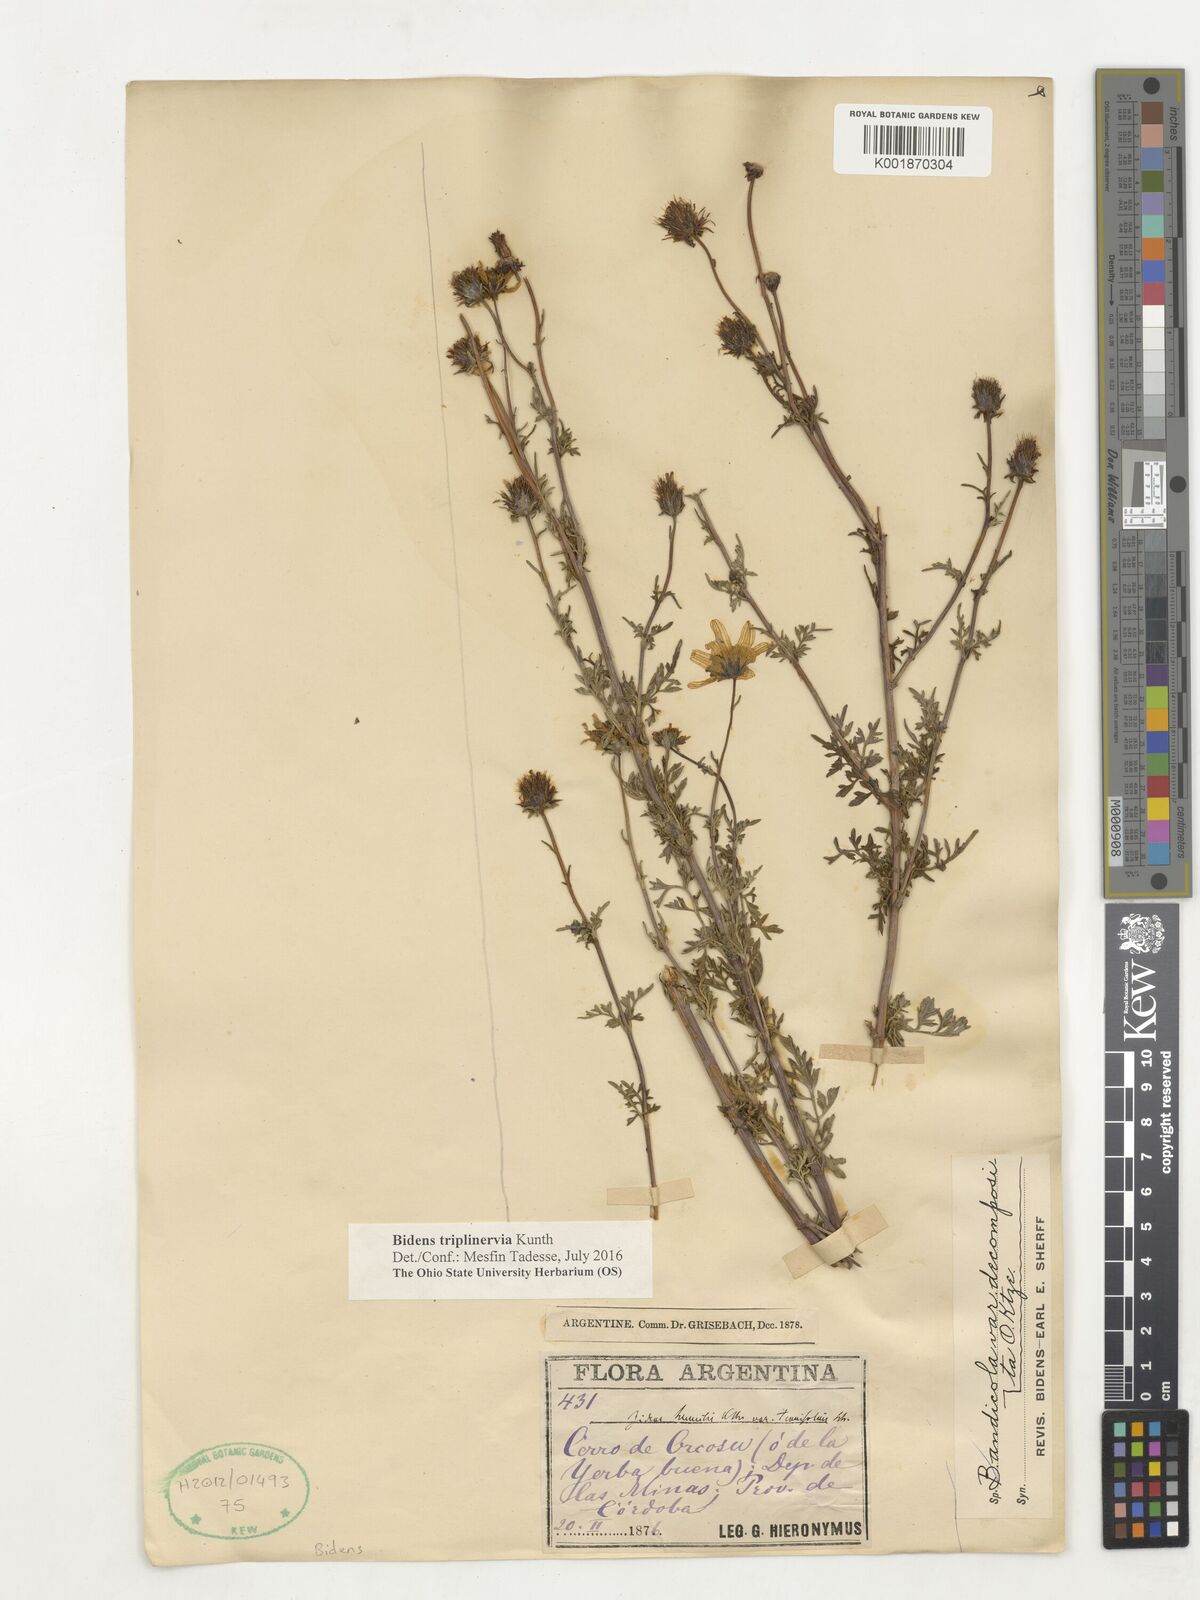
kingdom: Plantae
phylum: Tracheophyta
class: Magnoliopsida
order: Asterales
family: Asteraceae
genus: Bidens
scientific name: Bidens triplinervia
